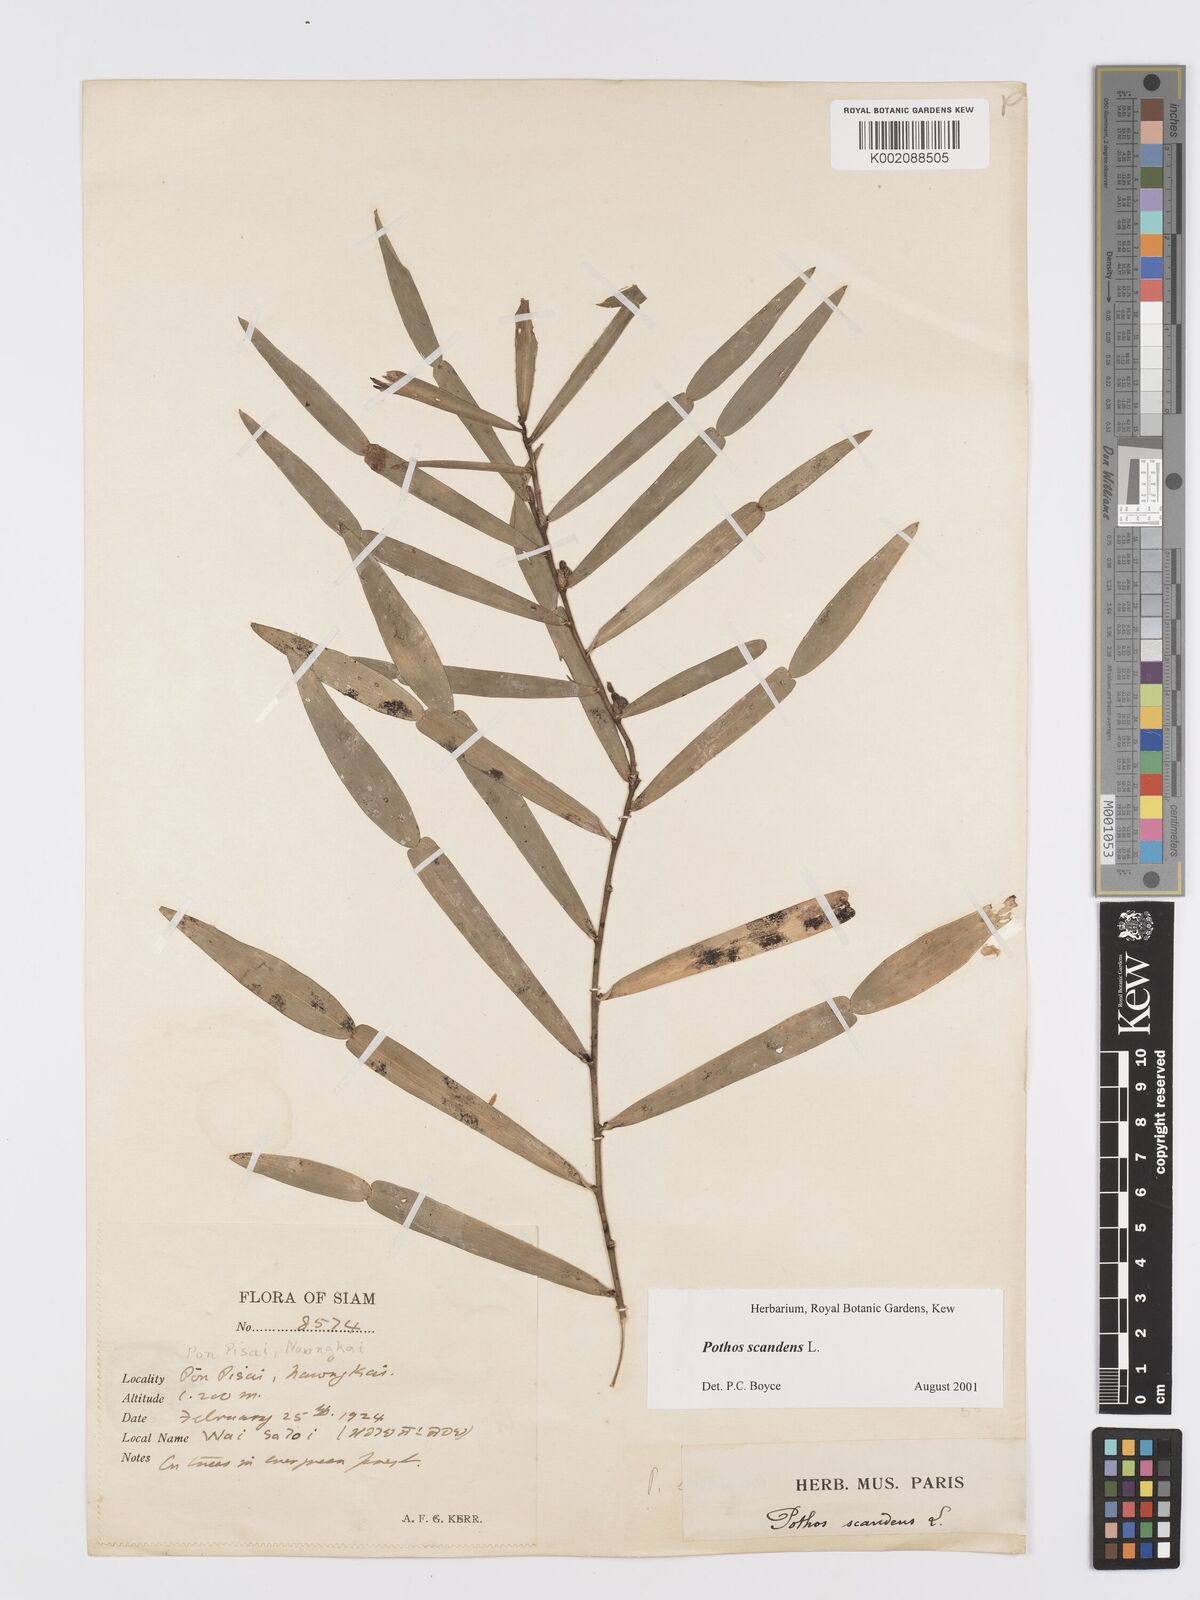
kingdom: Plantae
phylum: Tracheophyta
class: Liliopsida
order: Alismatales
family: Araceae
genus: Pothos
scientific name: Pothos scandens
